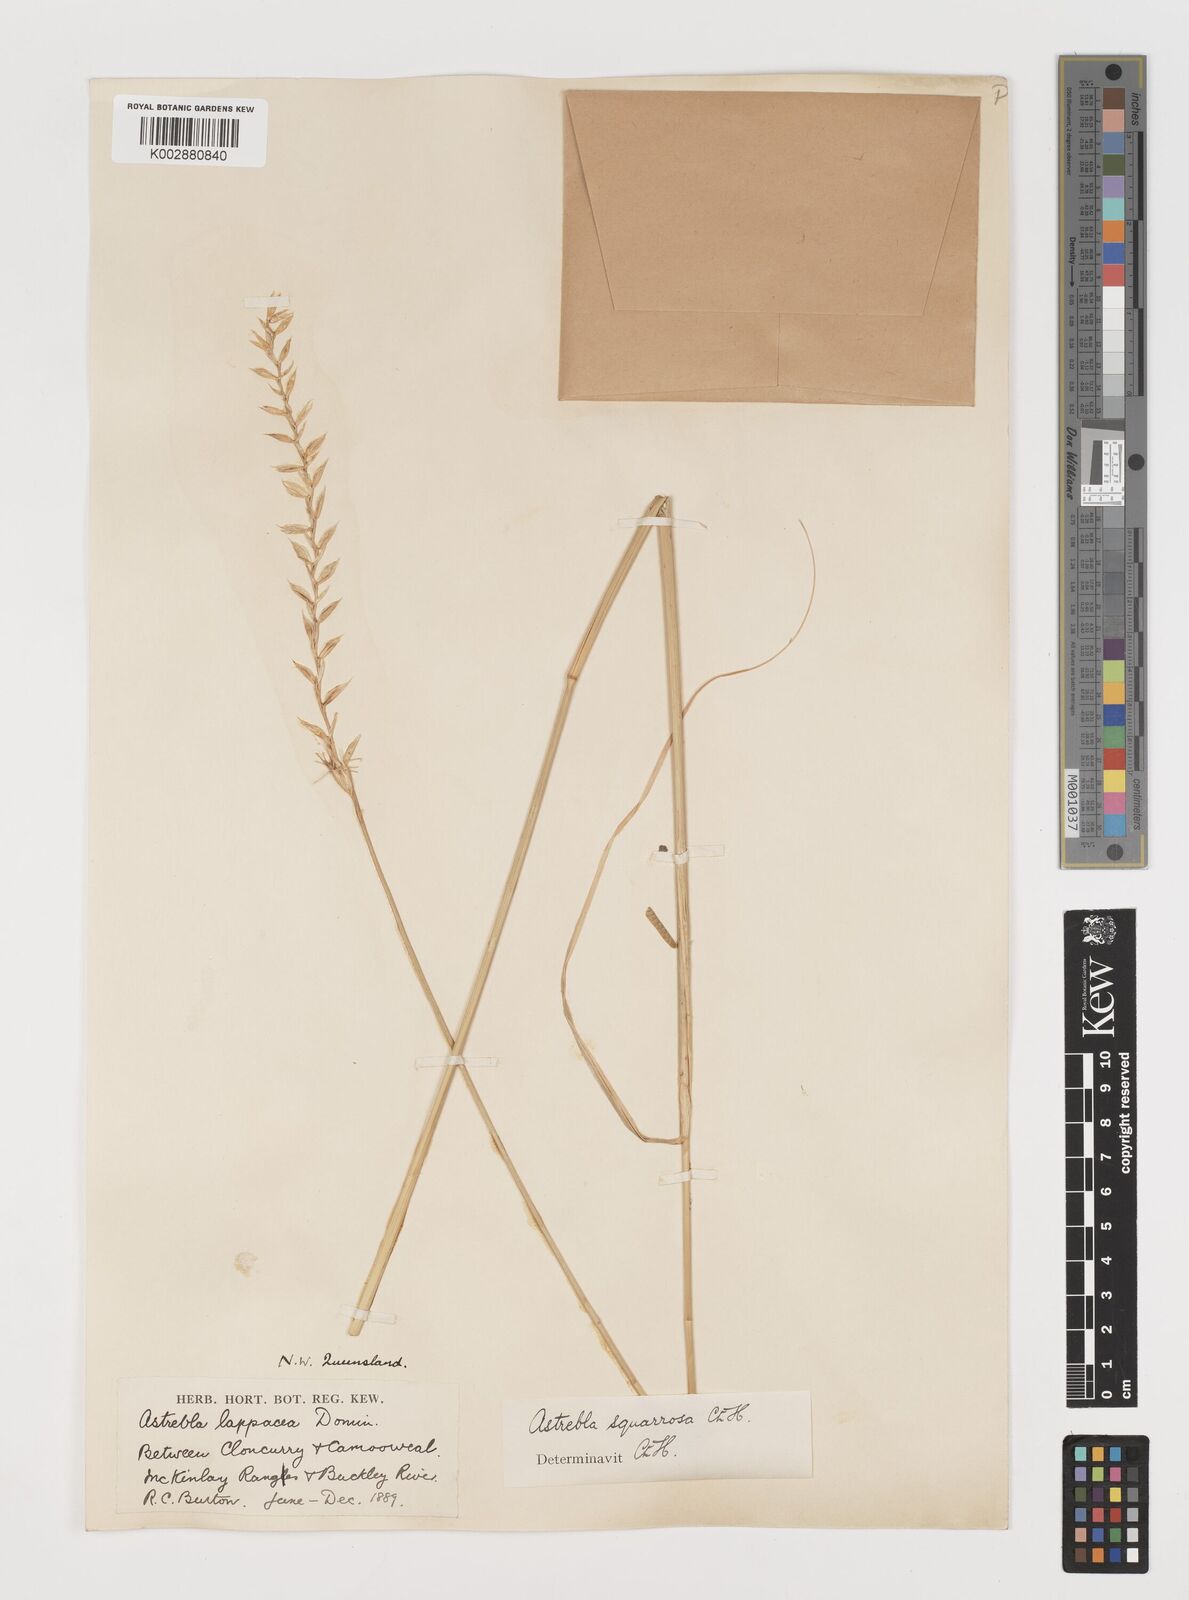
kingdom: Plantae
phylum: Tracheophyta
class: Liliopsida
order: Poales
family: Poaceae
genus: Astrebla
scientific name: Astrebla squarrosa
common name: Wheat-ear mitchell grass
